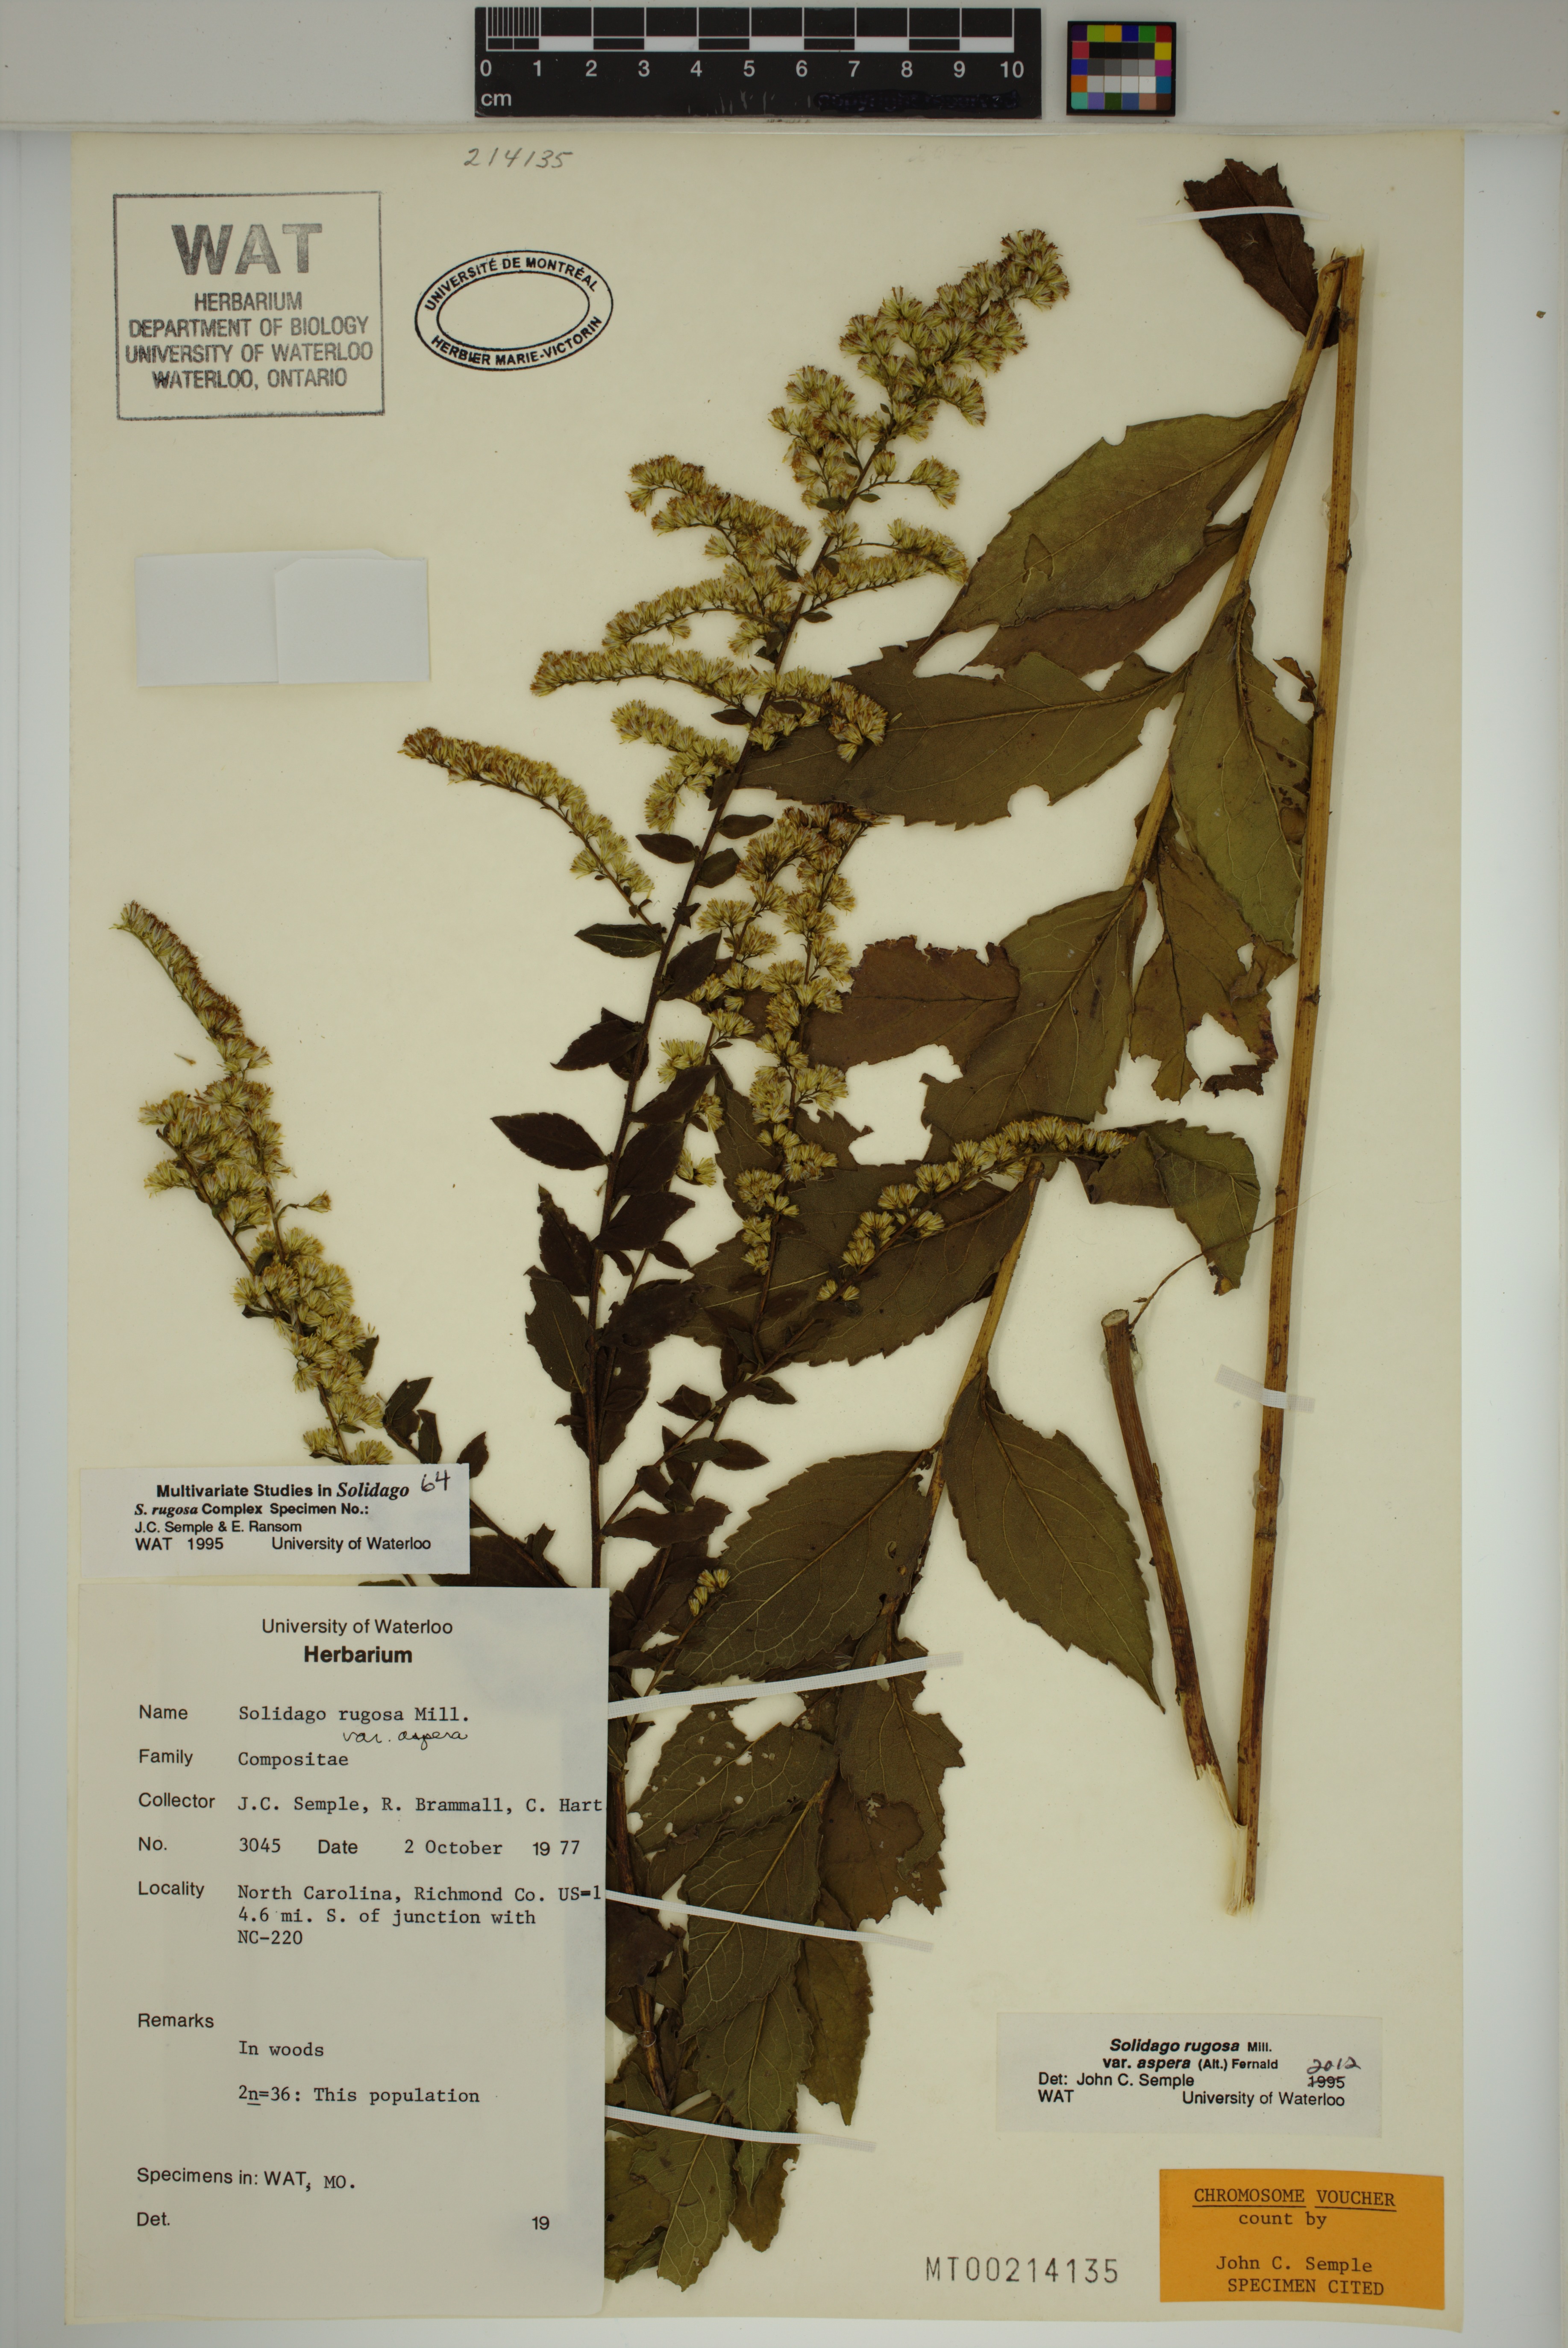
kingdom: Plantae
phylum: Tracheophyta
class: Magnoliopsida
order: Asterales
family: Asteraceae
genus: Solidago
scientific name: Solidago rugosa
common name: Rough-stemmed goldenrod
